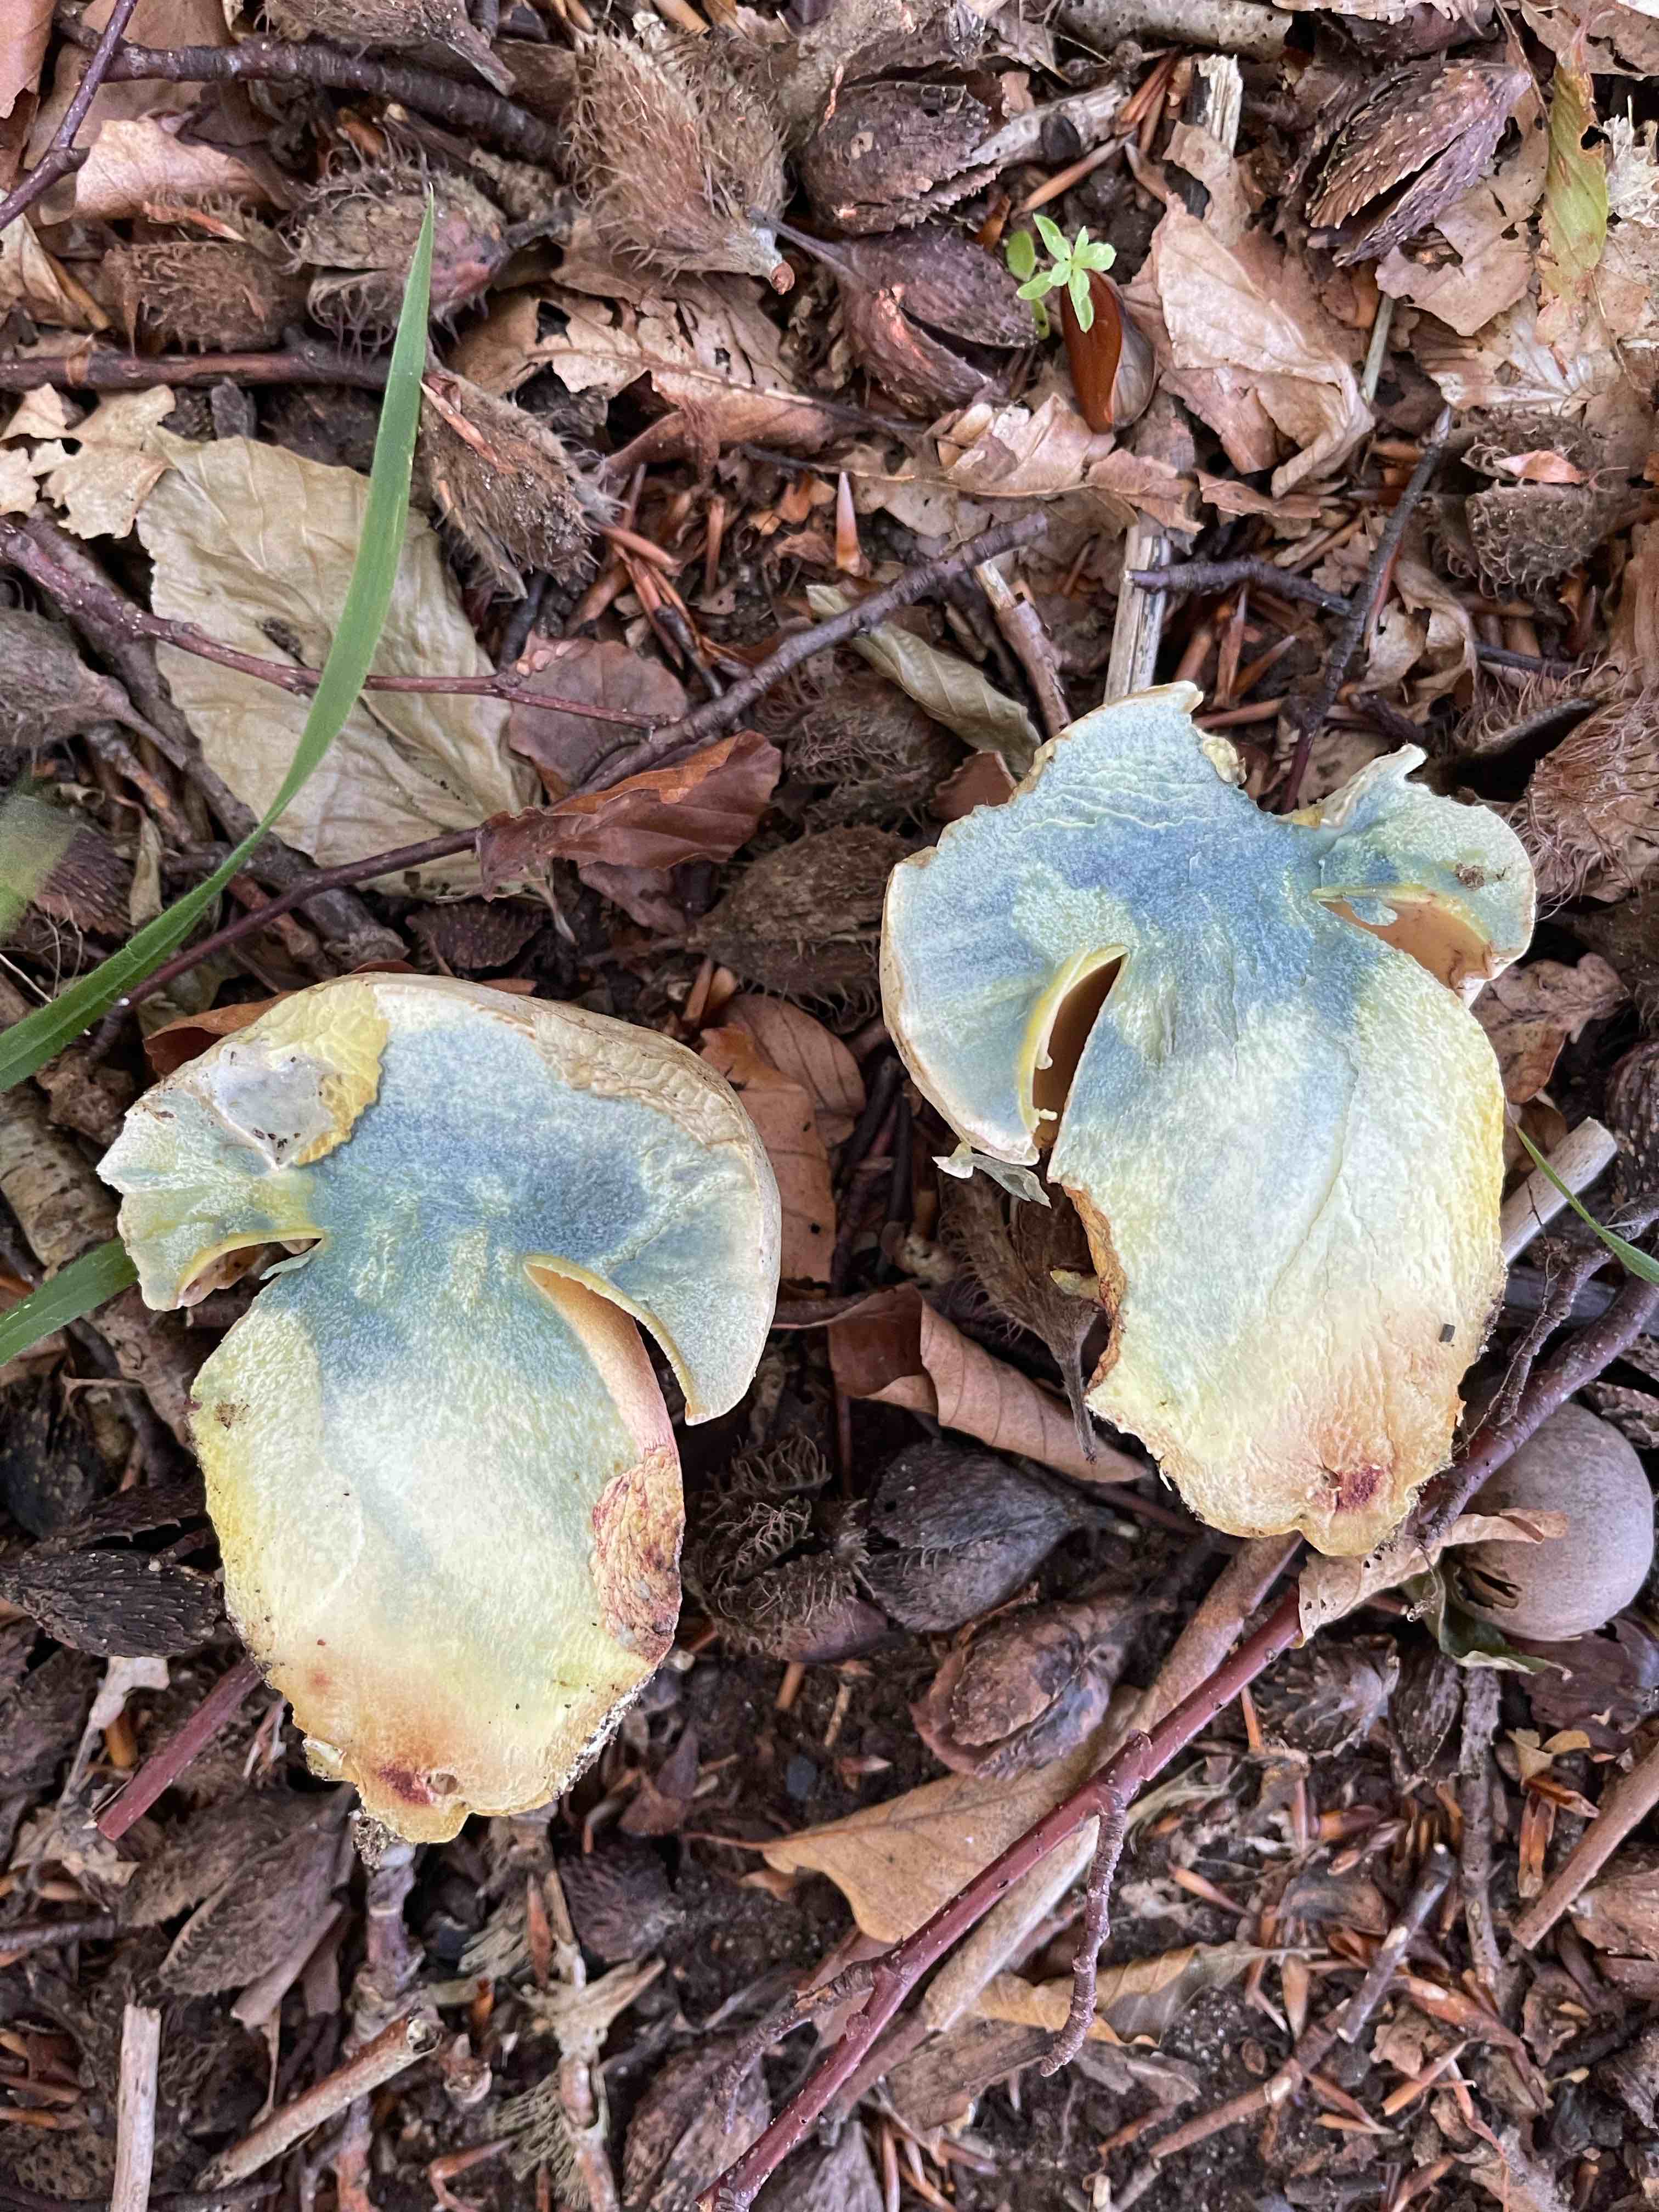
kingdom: Fungi
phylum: Basidiomycota
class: Agaricomycetes
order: Boletales
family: Boletaceae
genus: Rubroboletus
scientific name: Rubroboletus satanas
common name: Satans rørhat
